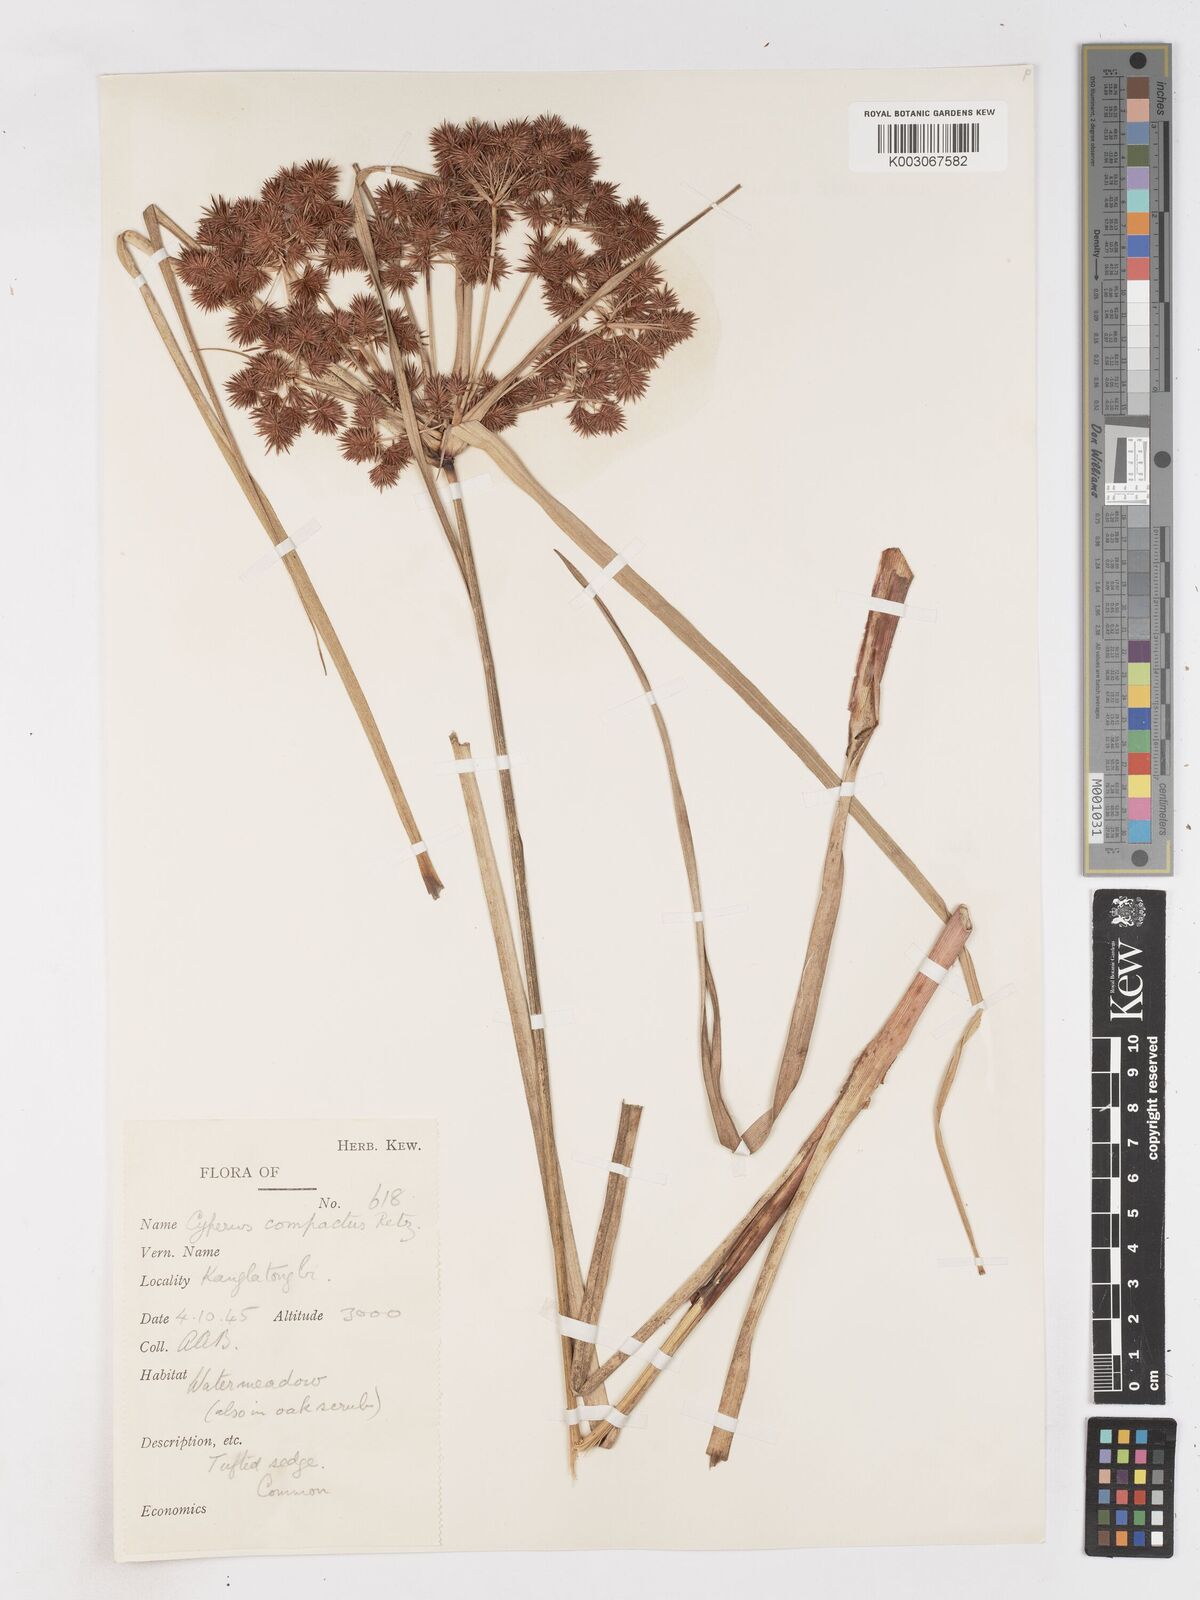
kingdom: Plantae
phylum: Tracheophyta
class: Liliopsida
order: Poales
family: Cyperaceae
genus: Cyperus
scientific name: Cyperus compactus
